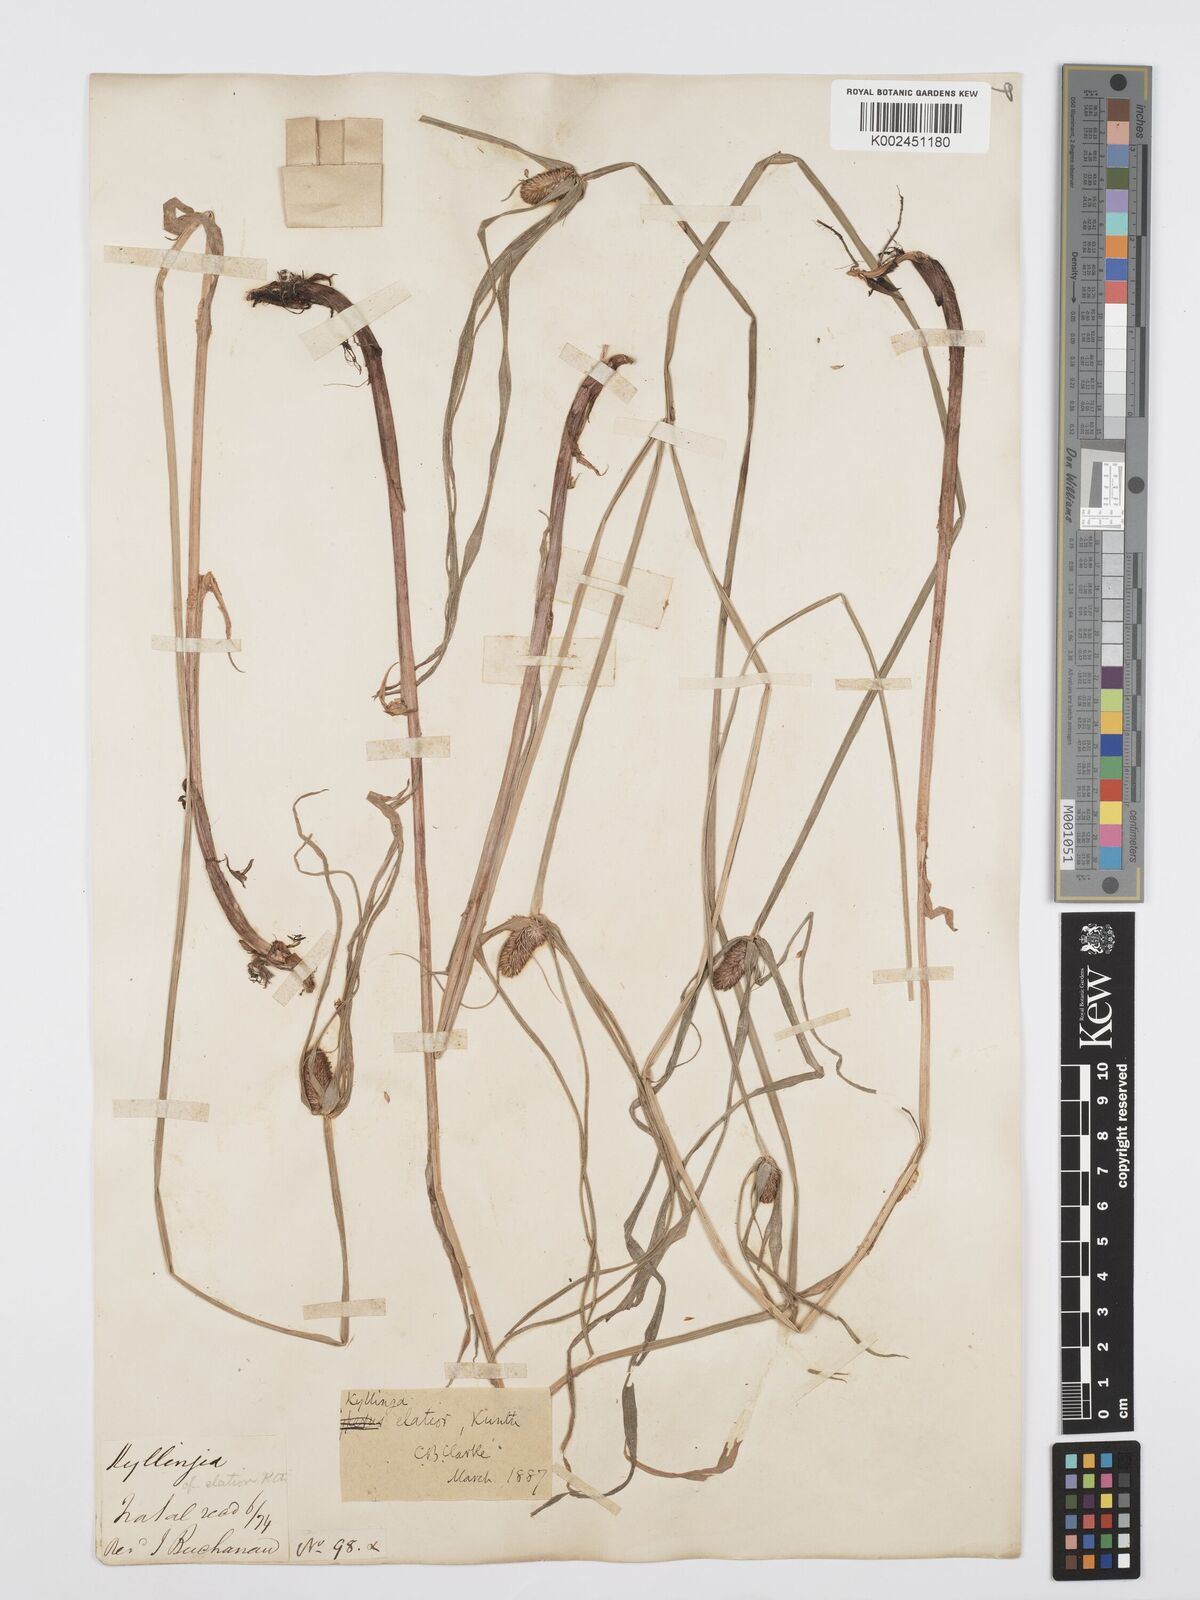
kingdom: Plantae
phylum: Tracheophyta
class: Liliopsida
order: Poales
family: Cyperaceae
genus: Cyperus
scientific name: Cyperus
